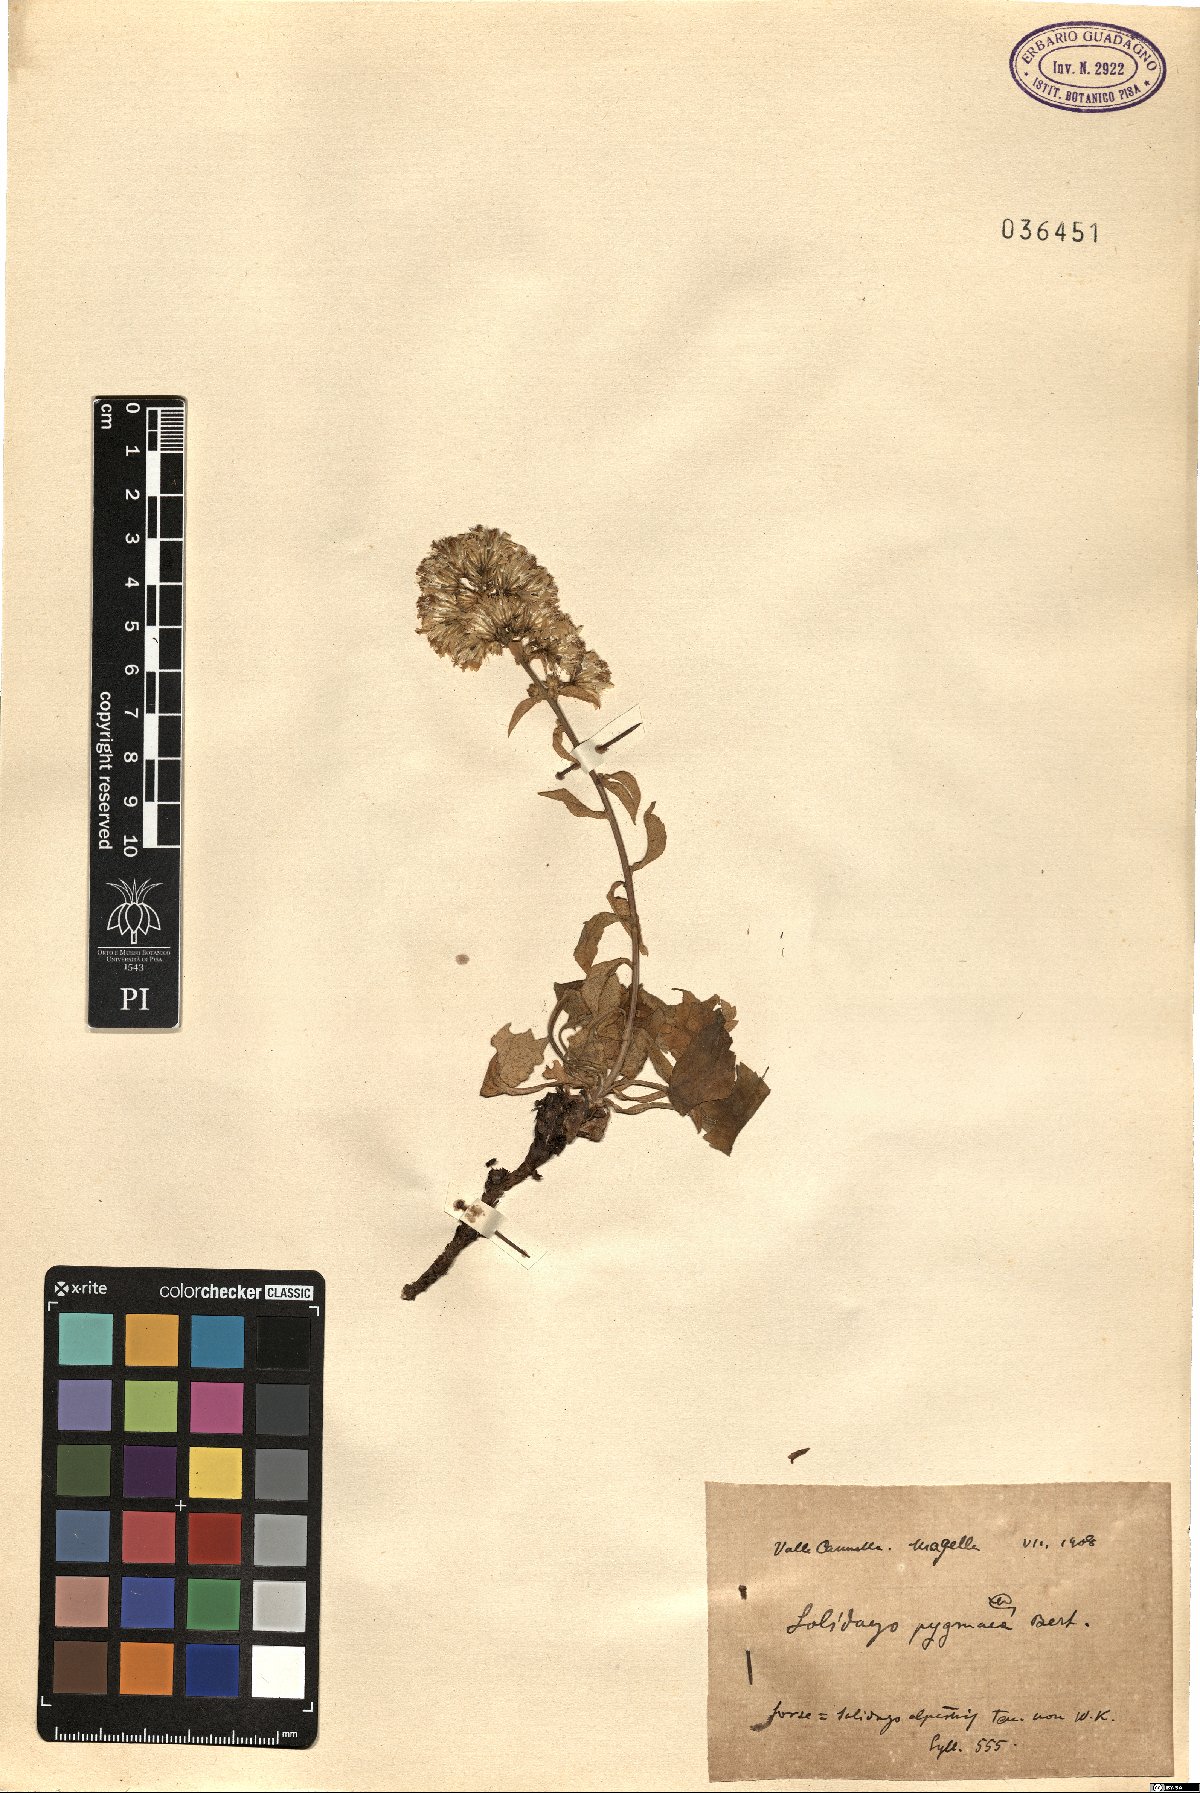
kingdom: Plantae
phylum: Tracheophyta
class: Magnoliopsida
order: Asterales
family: Asteraceae
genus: Solidago
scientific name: Solidago virgaurea
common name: Goldenrod
